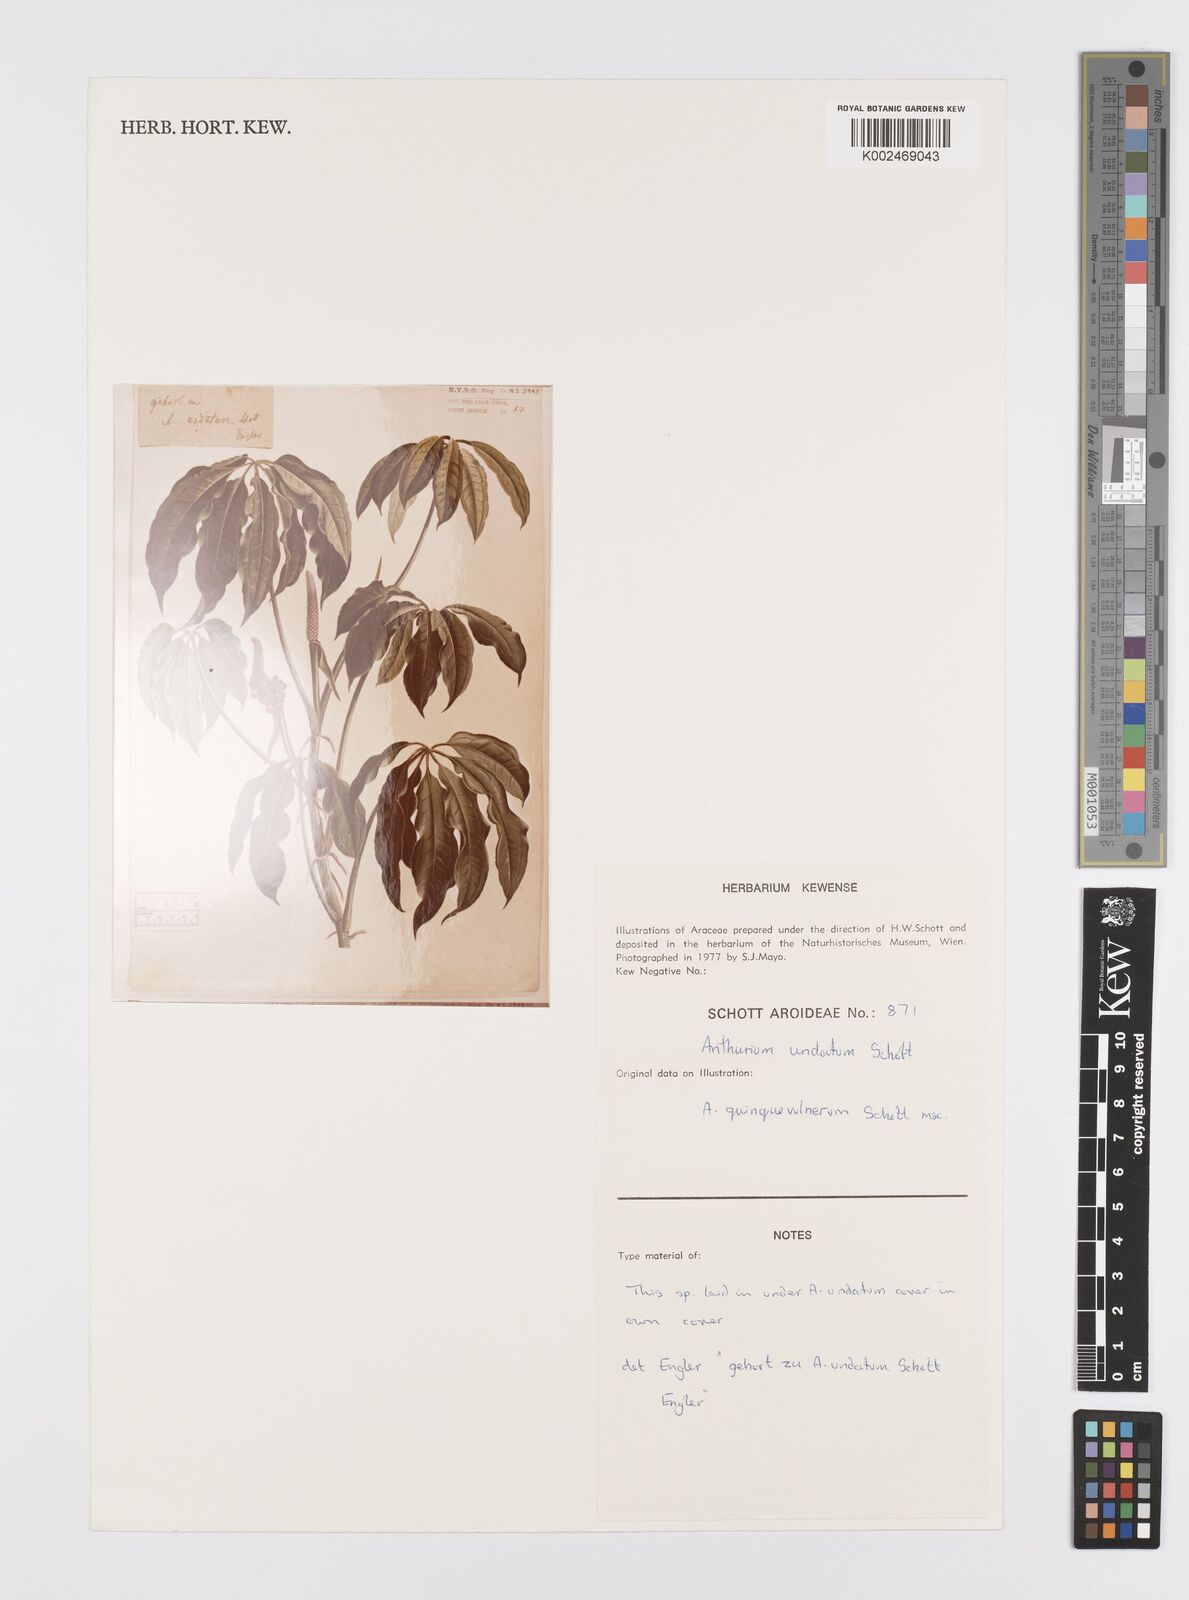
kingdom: Plantae
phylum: Tracheophyta
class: Liliopsida
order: Alismatales
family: Araceae
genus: Anthurium
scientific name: Anthurium pentaphyllum
